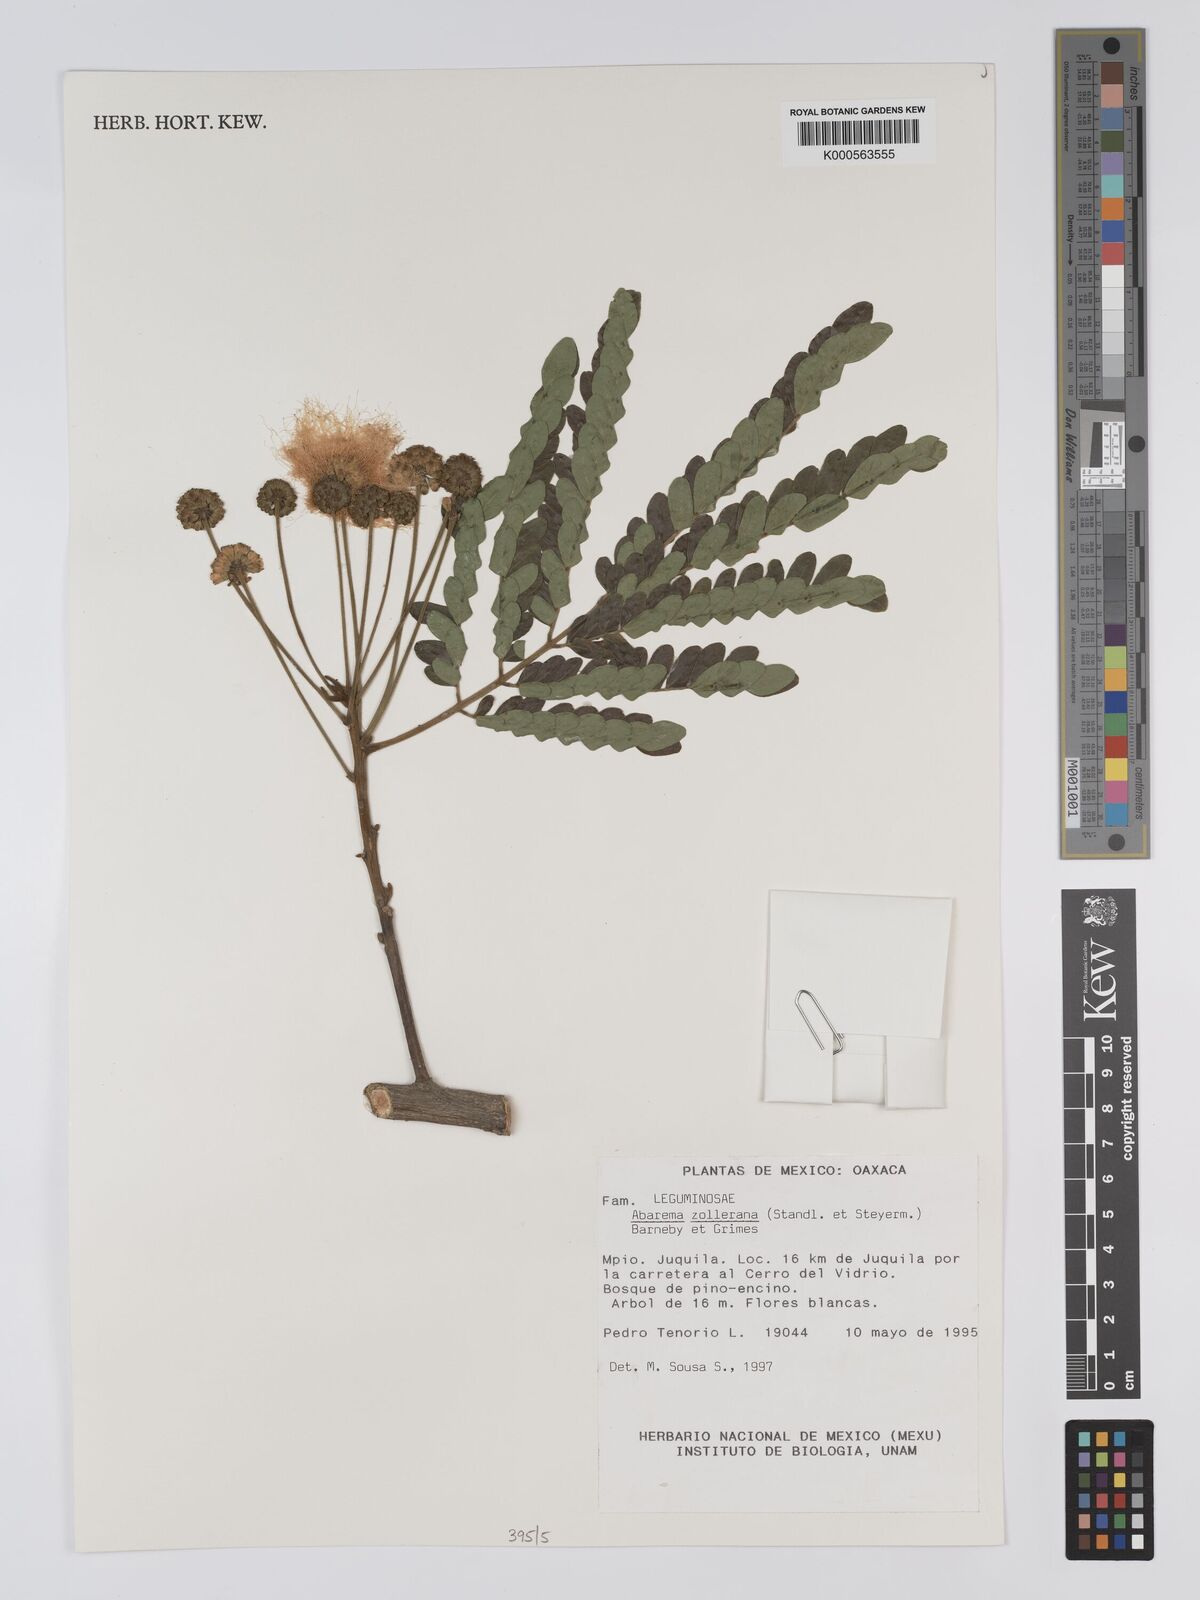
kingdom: Plantae
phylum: Tracheophyta
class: Magnoliopsida
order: Fabales
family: Fabaceae
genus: Jupunba
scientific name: Jupunba zolleriana
